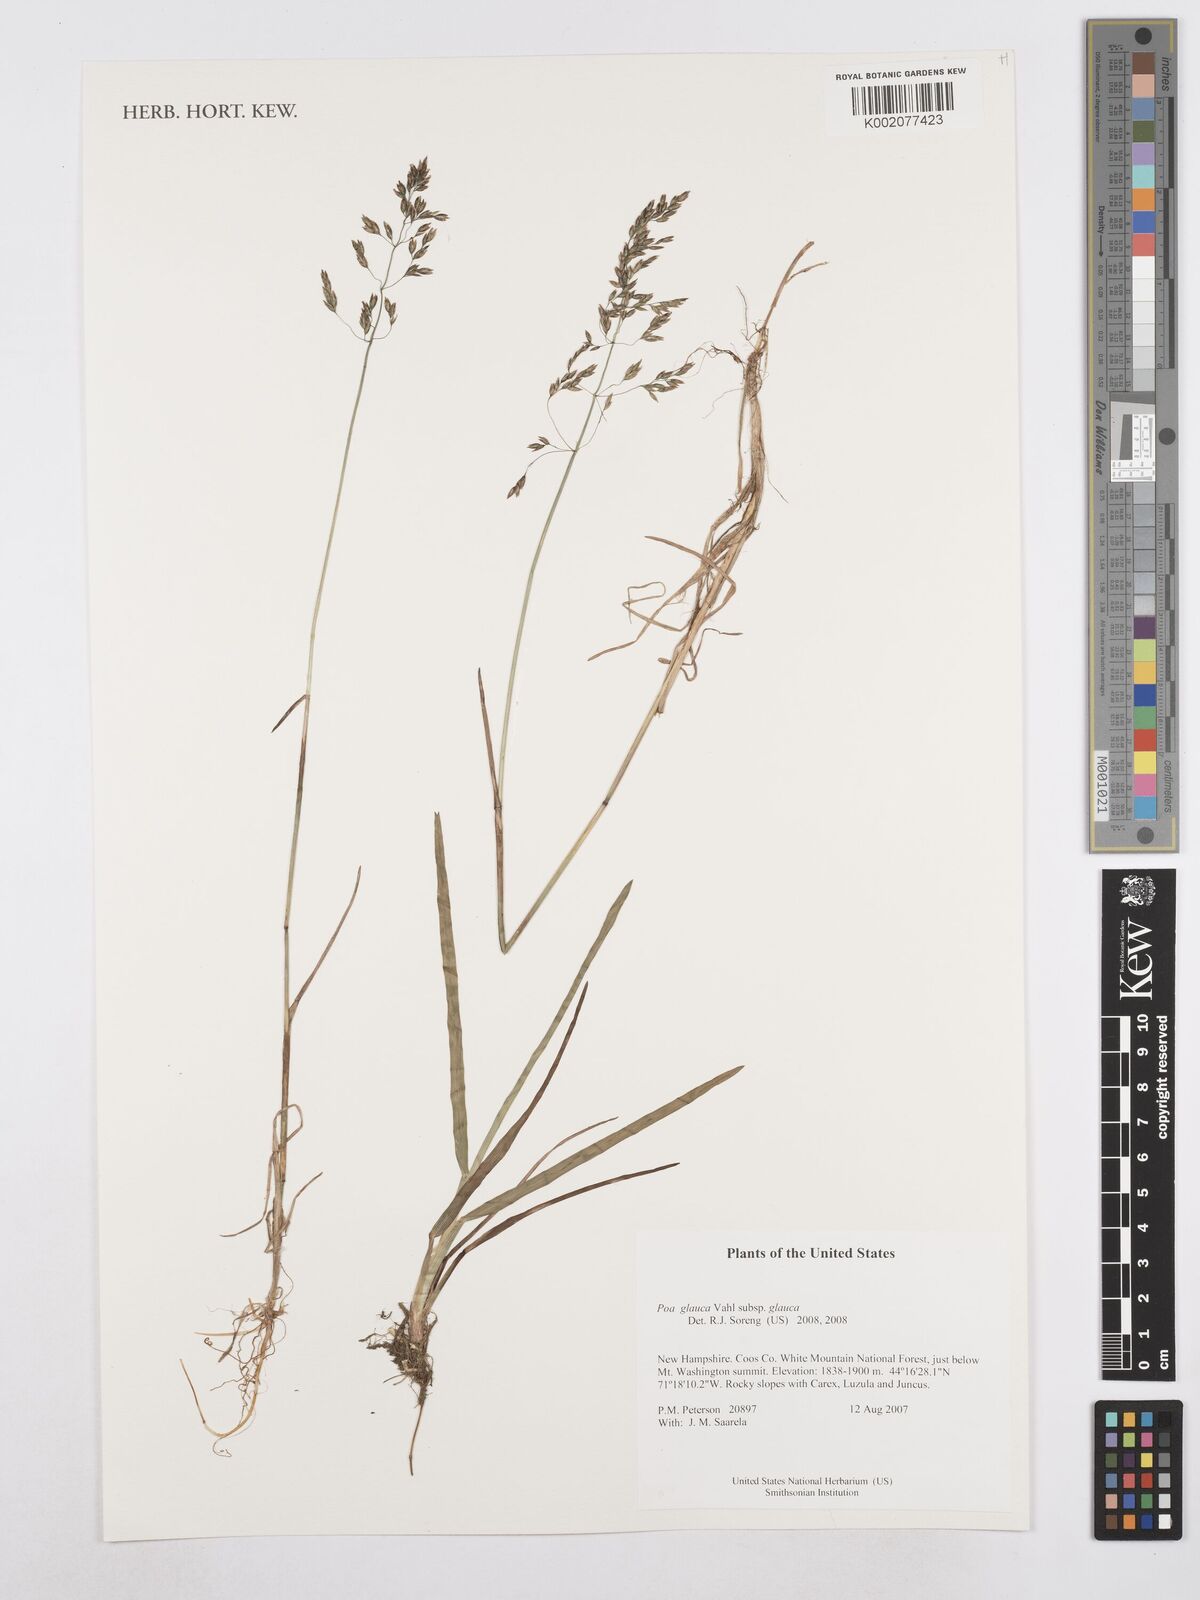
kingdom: Plantae
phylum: Tracheophyta
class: Liliopsida
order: Poales
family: Poaceae
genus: Poa
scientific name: Poa glauca
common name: Glaucous bluegrass
